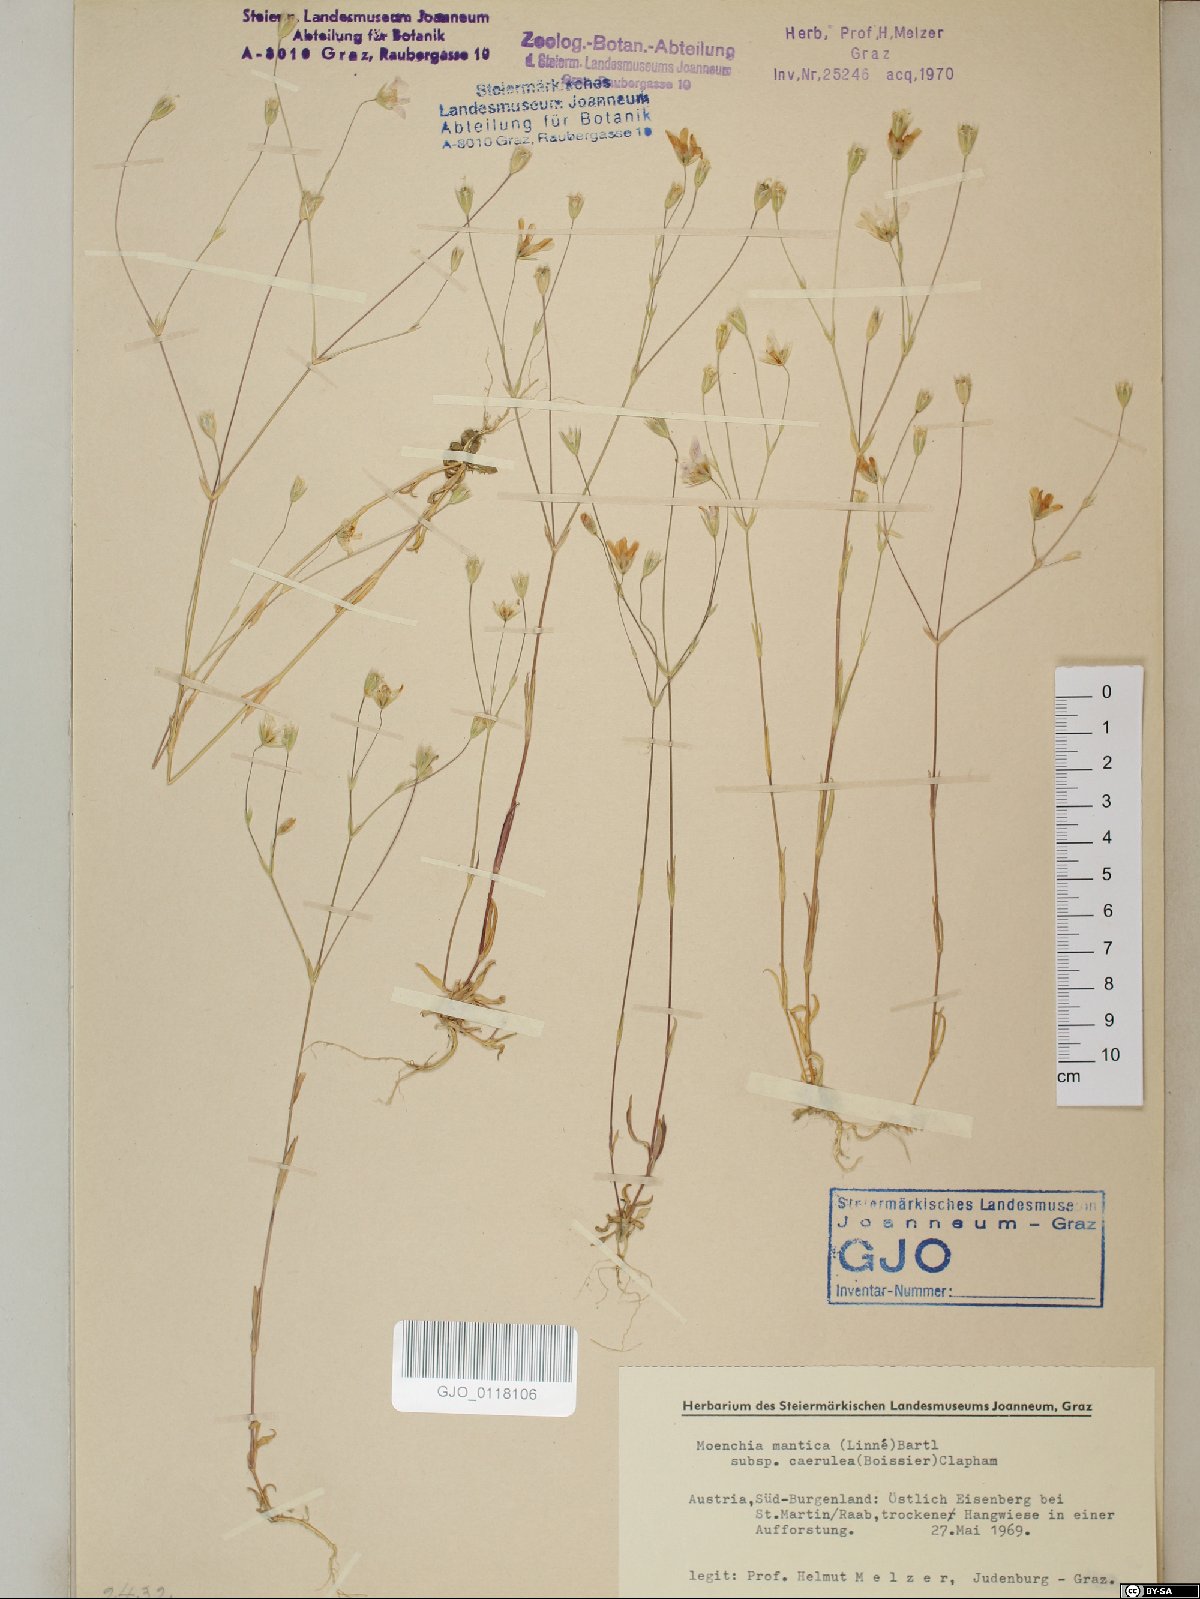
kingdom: Plantae
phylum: Tracheophyta
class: Magnoliopsida
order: Caryophyllales
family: Caryophyllaceae
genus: Moenchia
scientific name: Moenchia mantica
